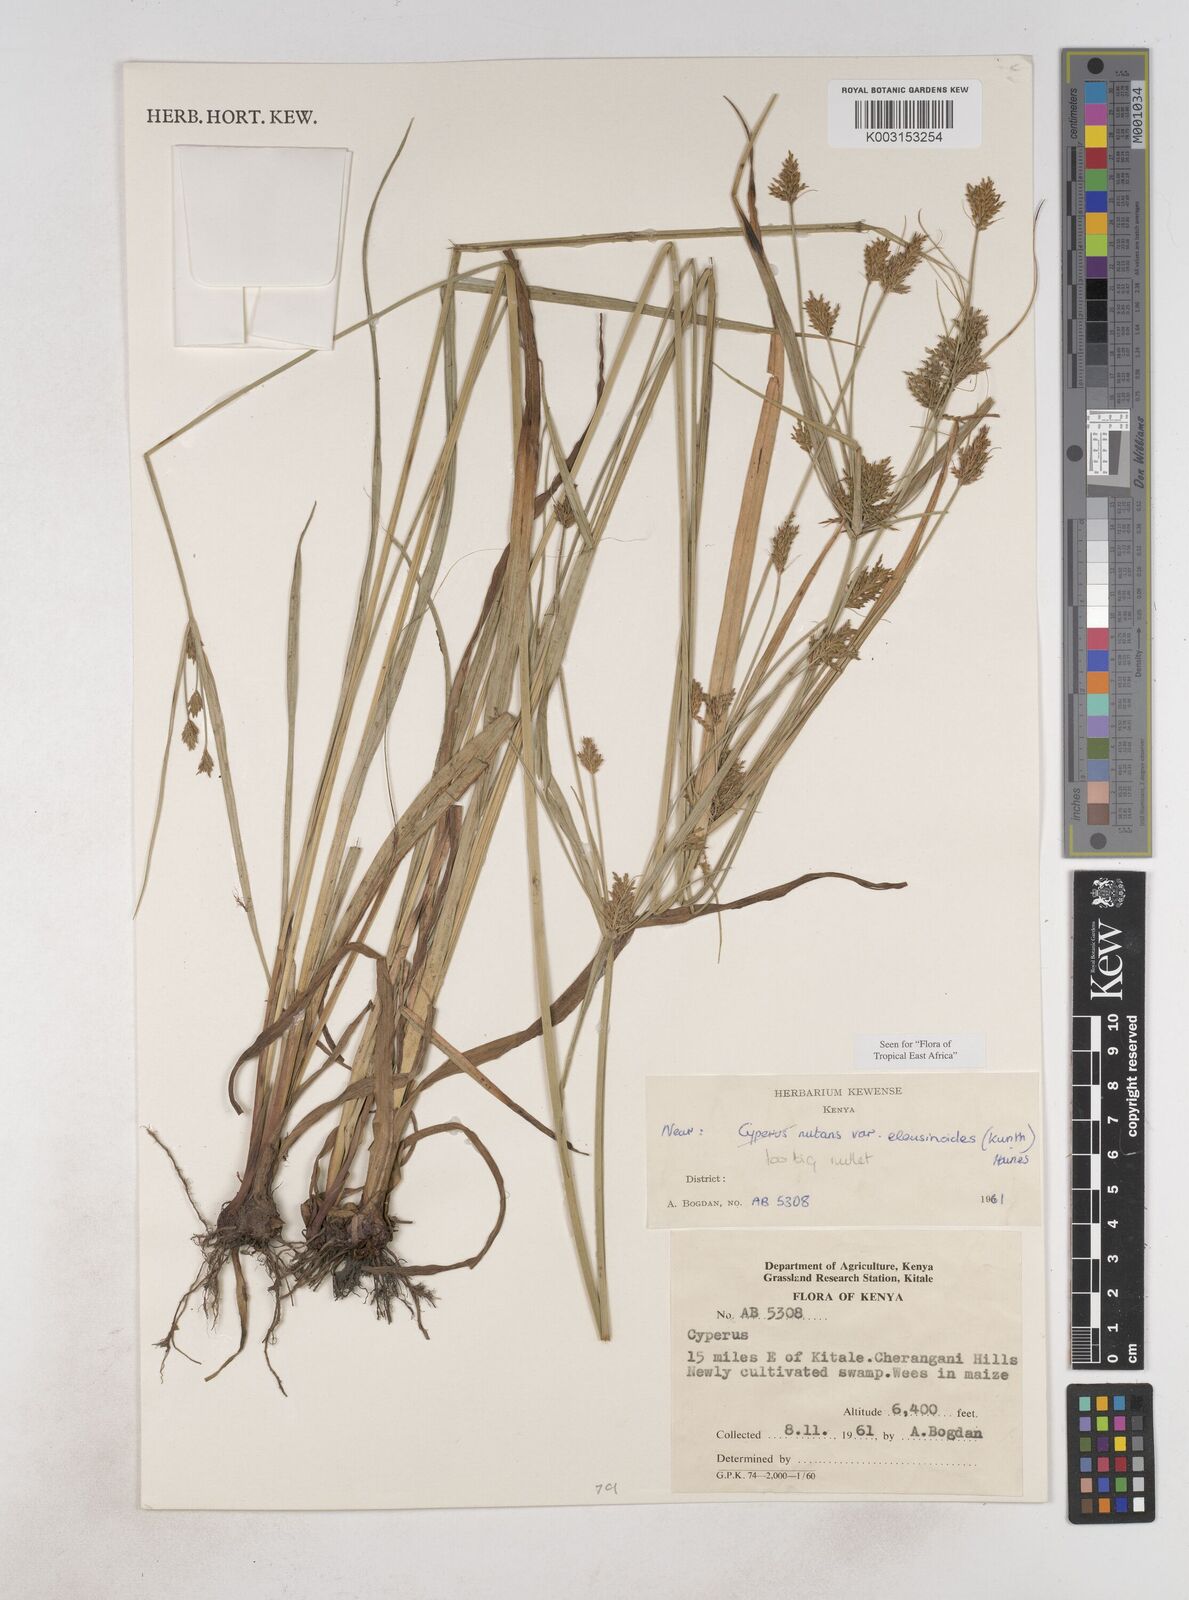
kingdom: Plantae
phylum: Tracheophyta
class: Liliopsida
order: Poales
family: Cyperaceae
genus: Cyperus
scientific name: Cyperus nutans
